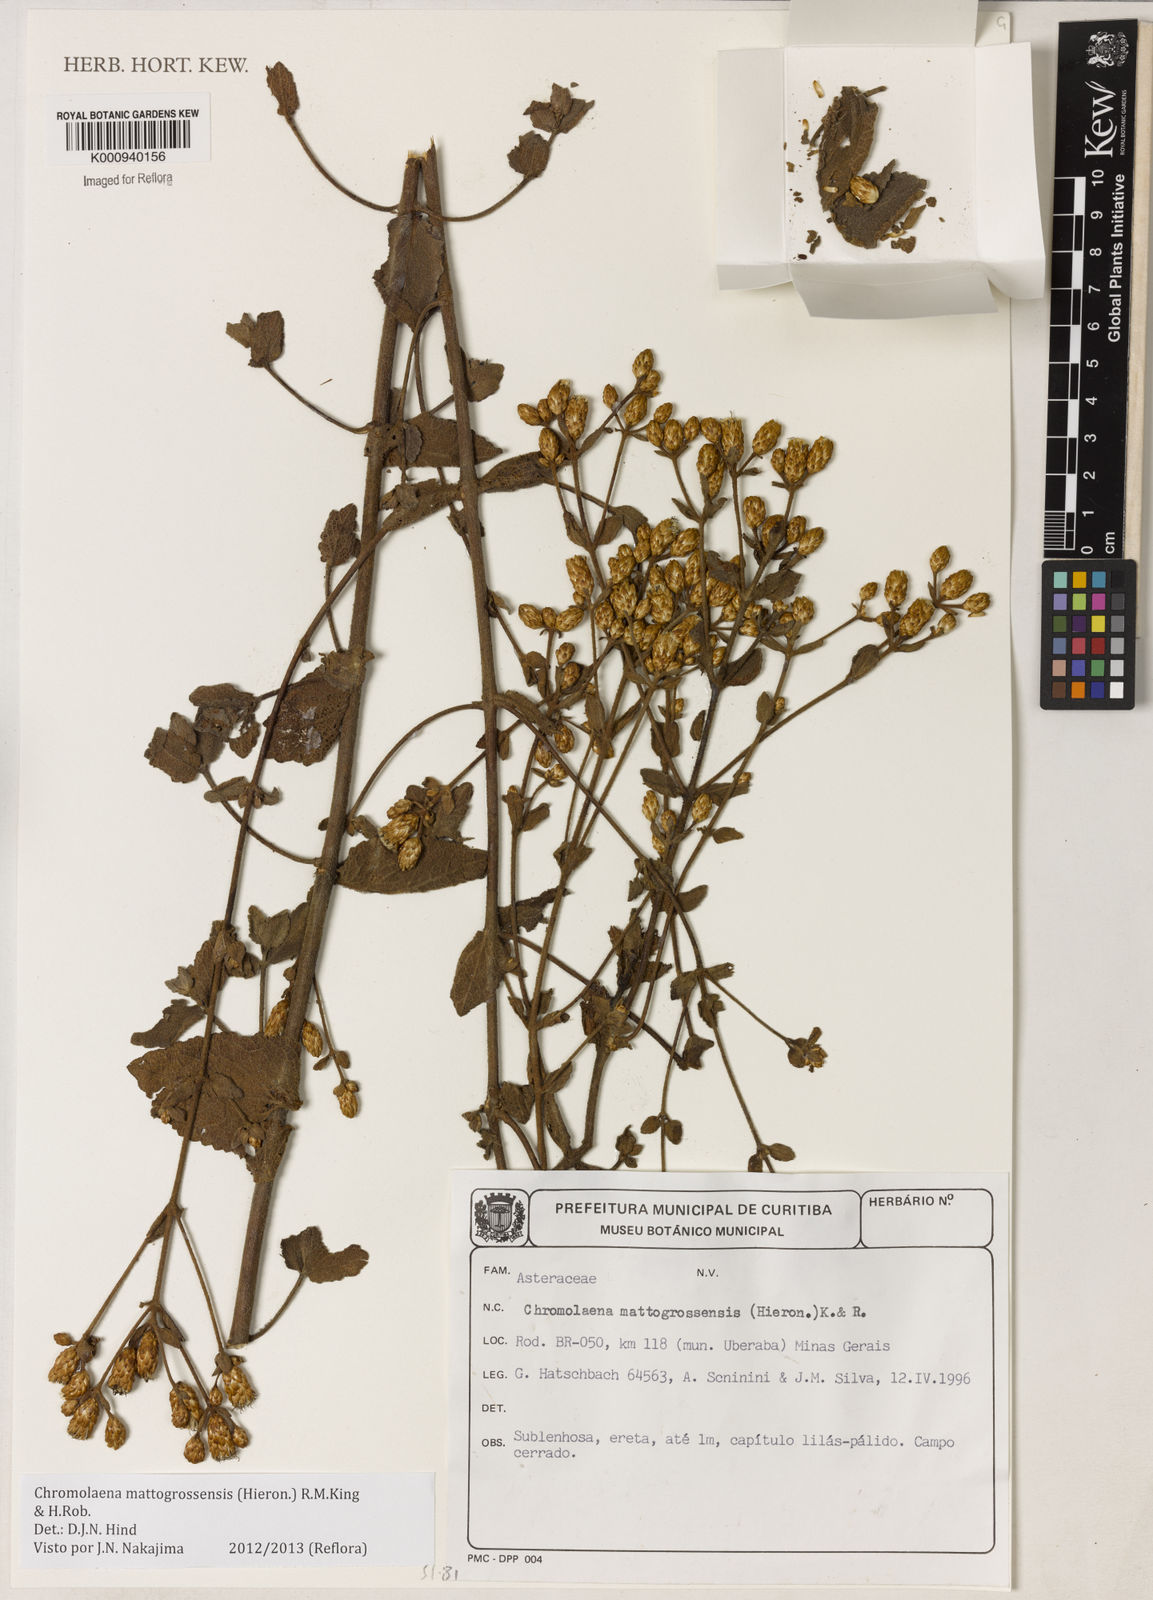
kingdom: Plantae
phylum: Tracheophyta
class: Magnoliopsida
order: Asterales
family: Asteraceae
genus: Chromolaena
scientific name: Chromolaena mattogrossensis
